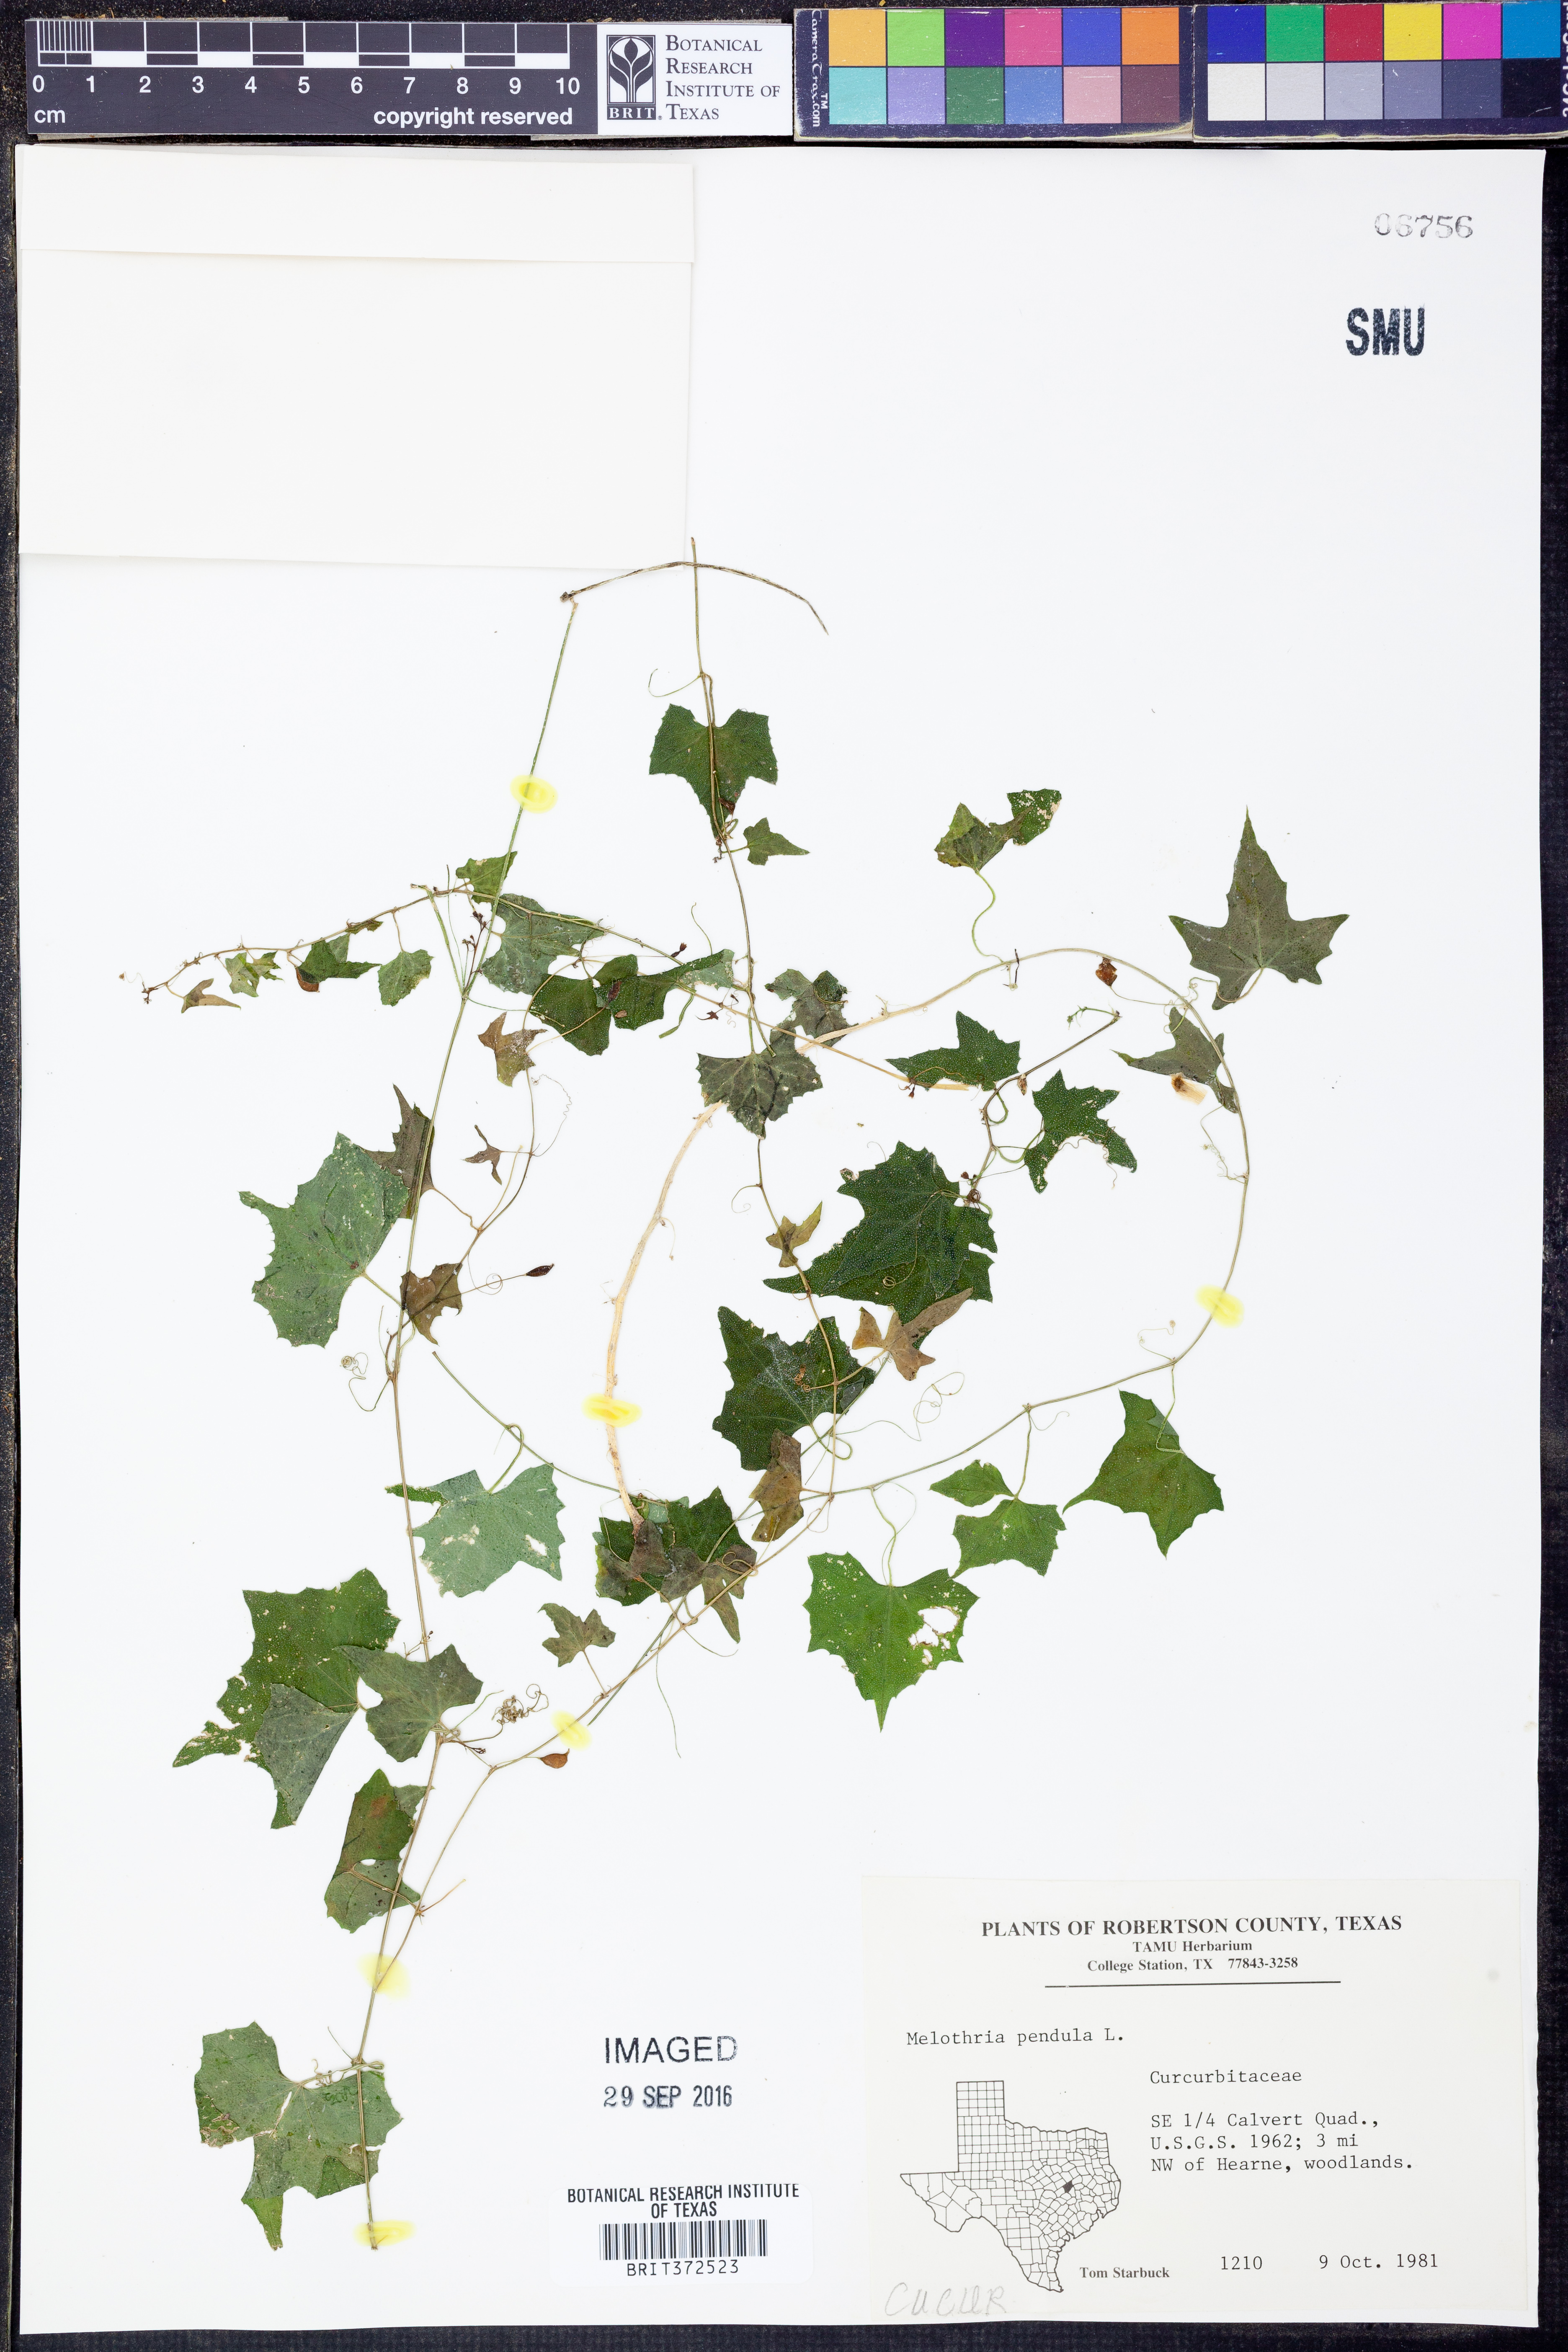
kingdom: Plantae
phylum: Tracheophyta
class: Magnoliopsida
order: Cucurbitales
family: Cucurbitaceae
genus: Melothria
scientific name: Melothria pendula
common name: Creeping-cucumber
